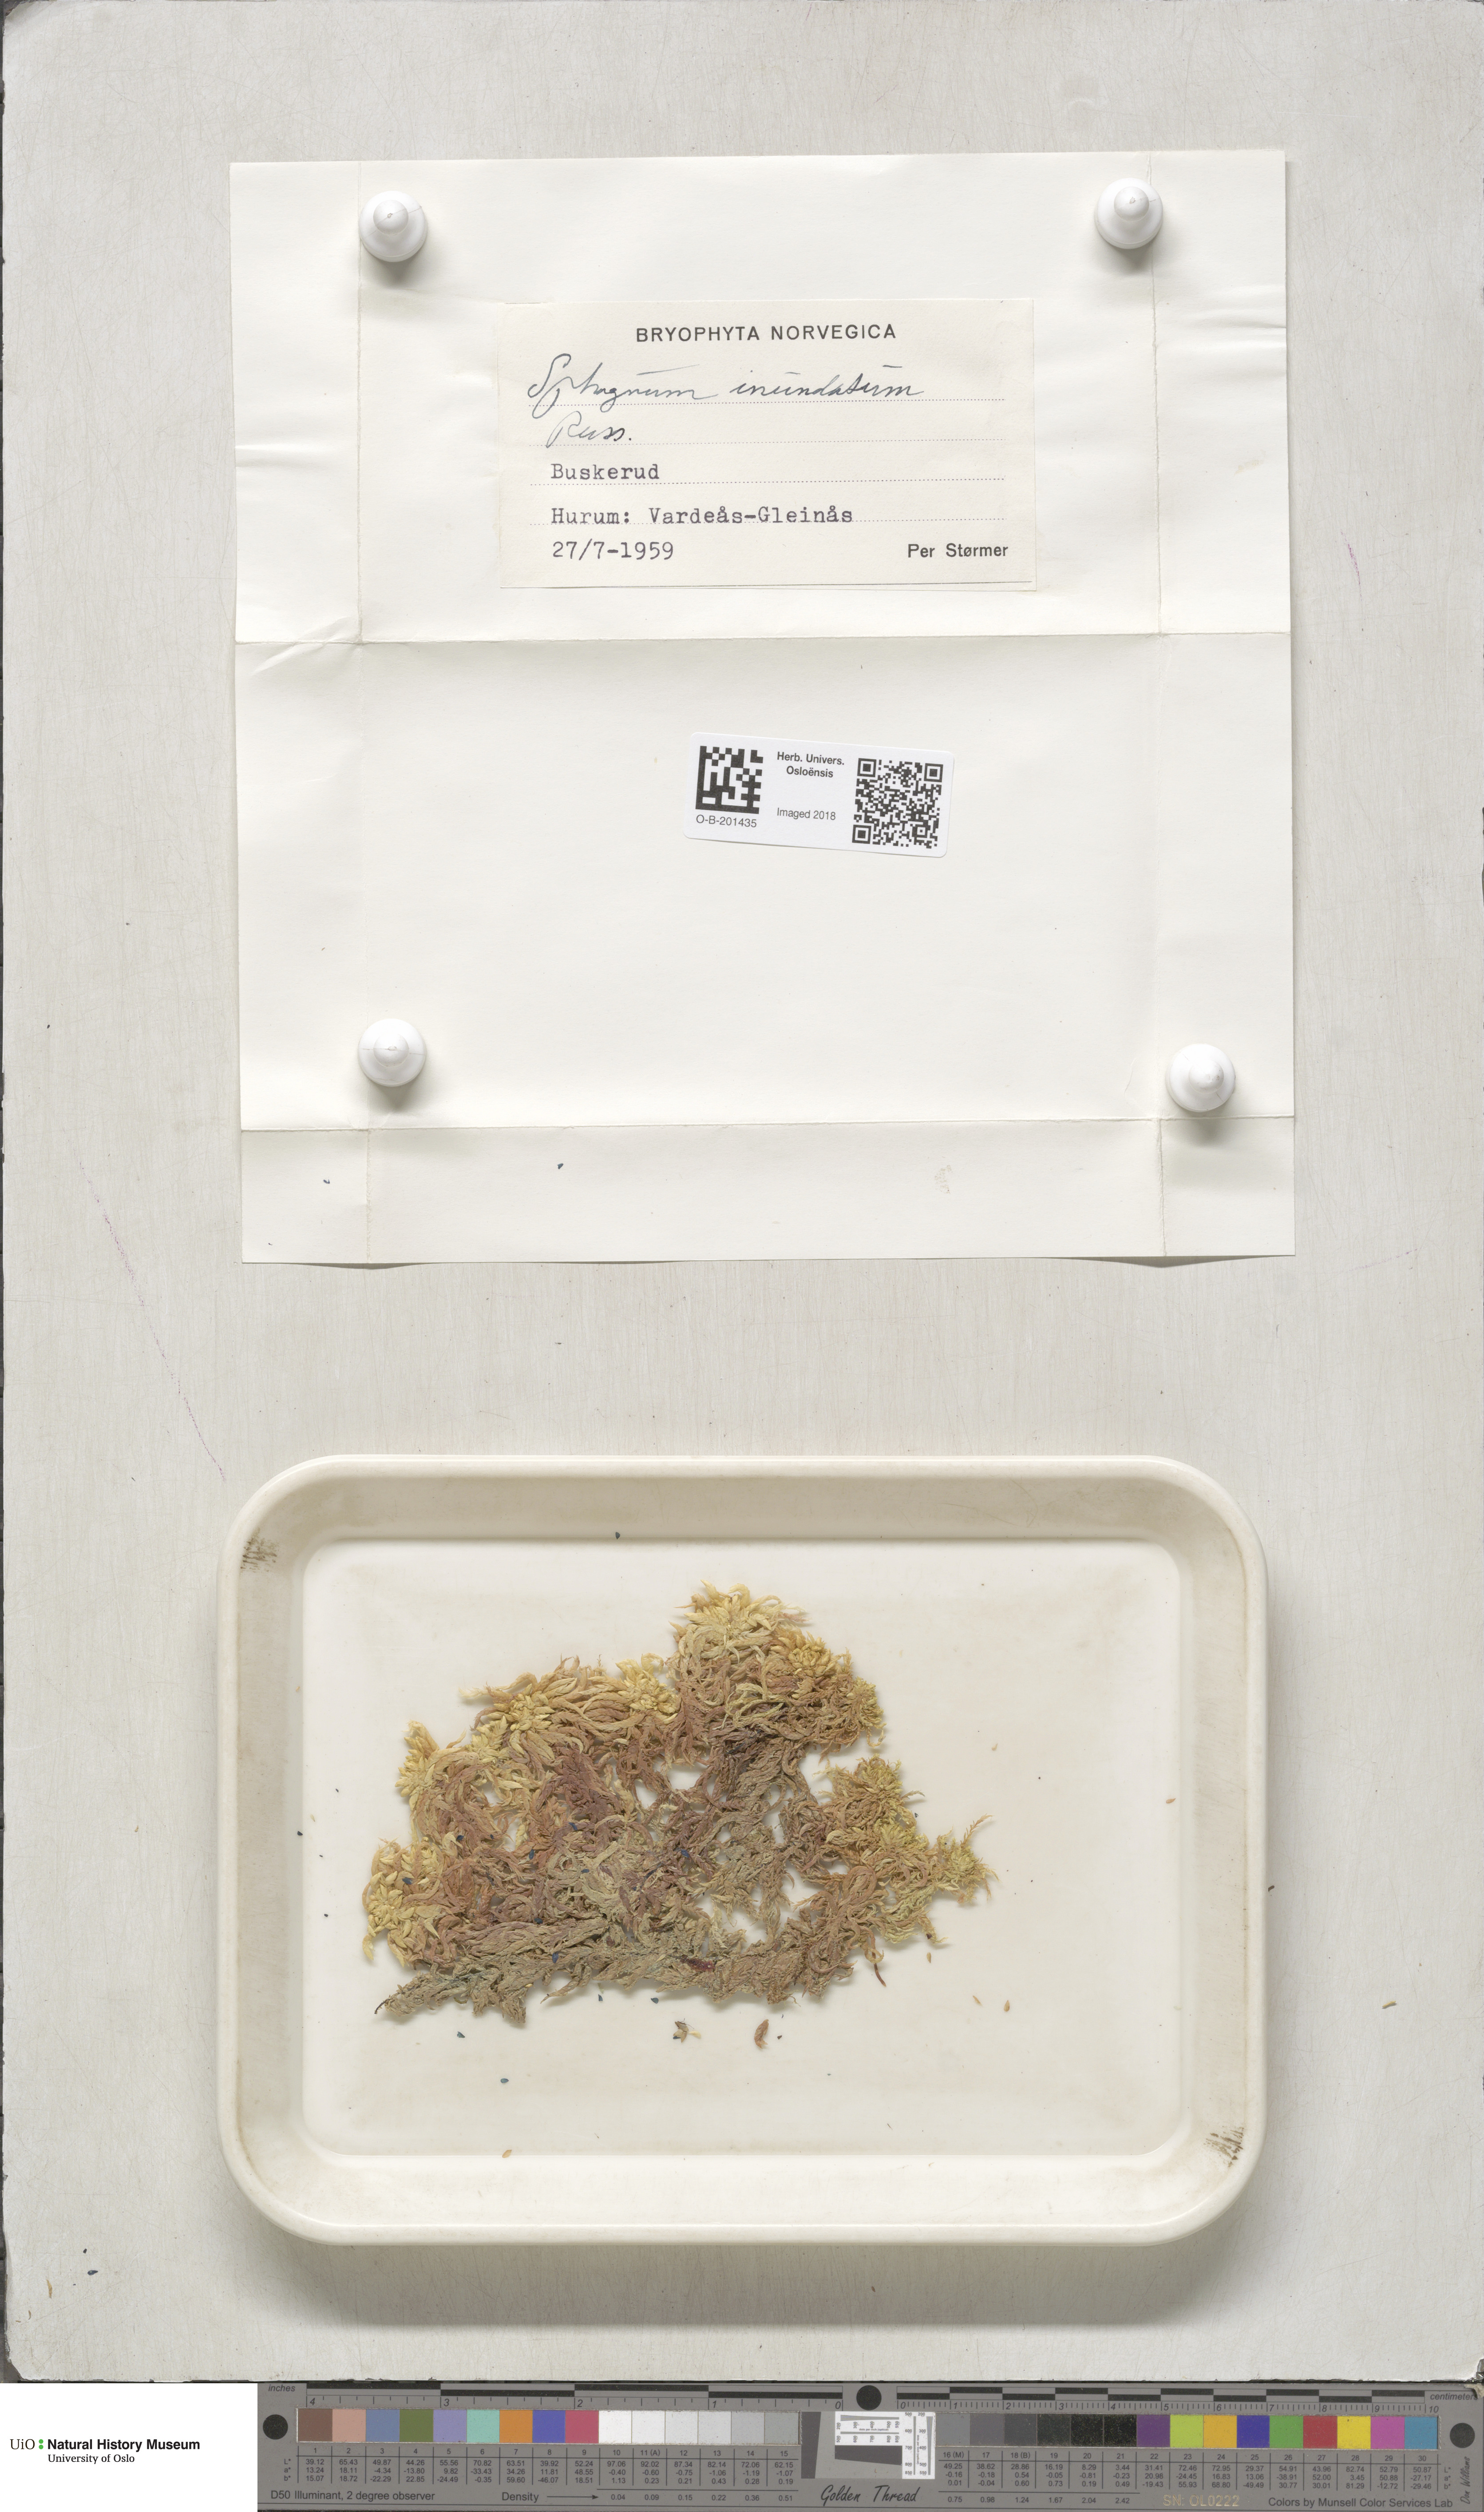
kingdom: Plantae
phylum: Bryophyta
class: Sphagnopsida
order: Sphagnales
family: Sphagnaceae
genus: Sphagnum
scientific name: Sphagnum inundatum
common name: Lesser cow-horn bog-moss
